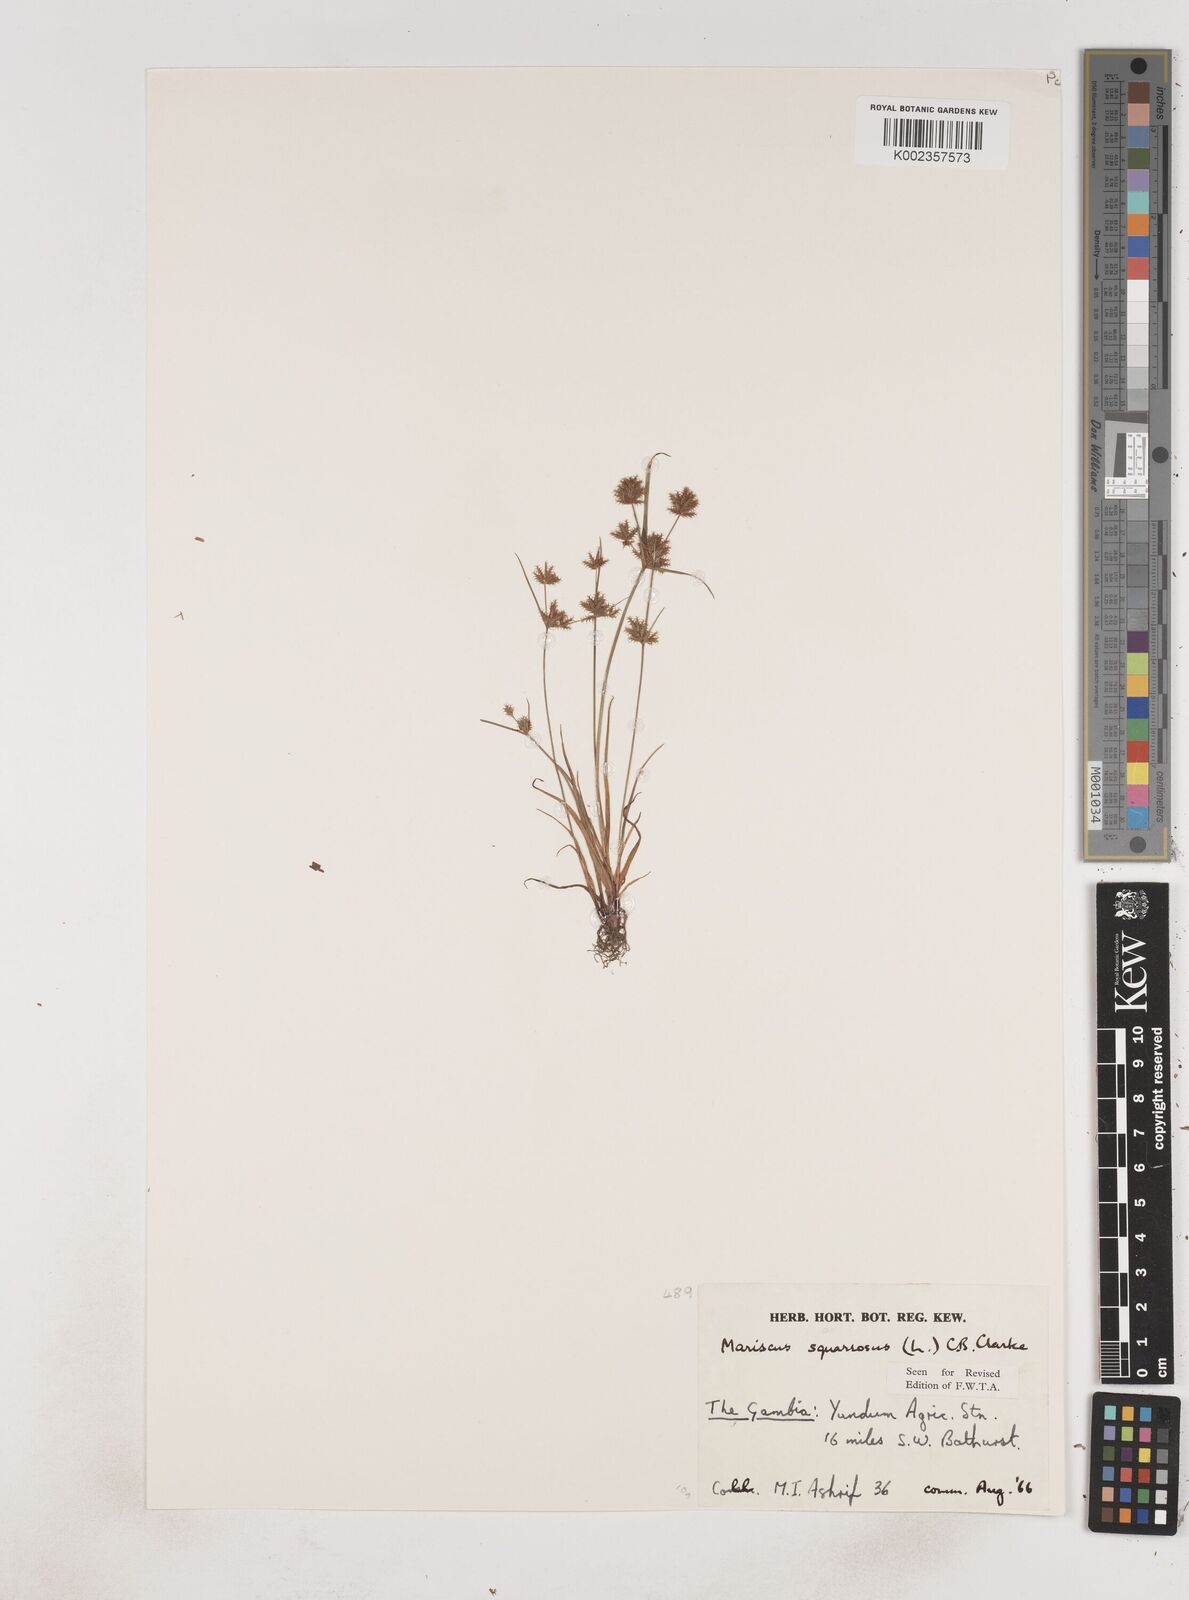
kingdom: Plantae
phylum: Tracheophyta
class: Liliopsida
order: Poales
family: Cyperaceae
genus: Cyperus
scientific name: Cyperus squarrosus
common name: Awned cyperus
